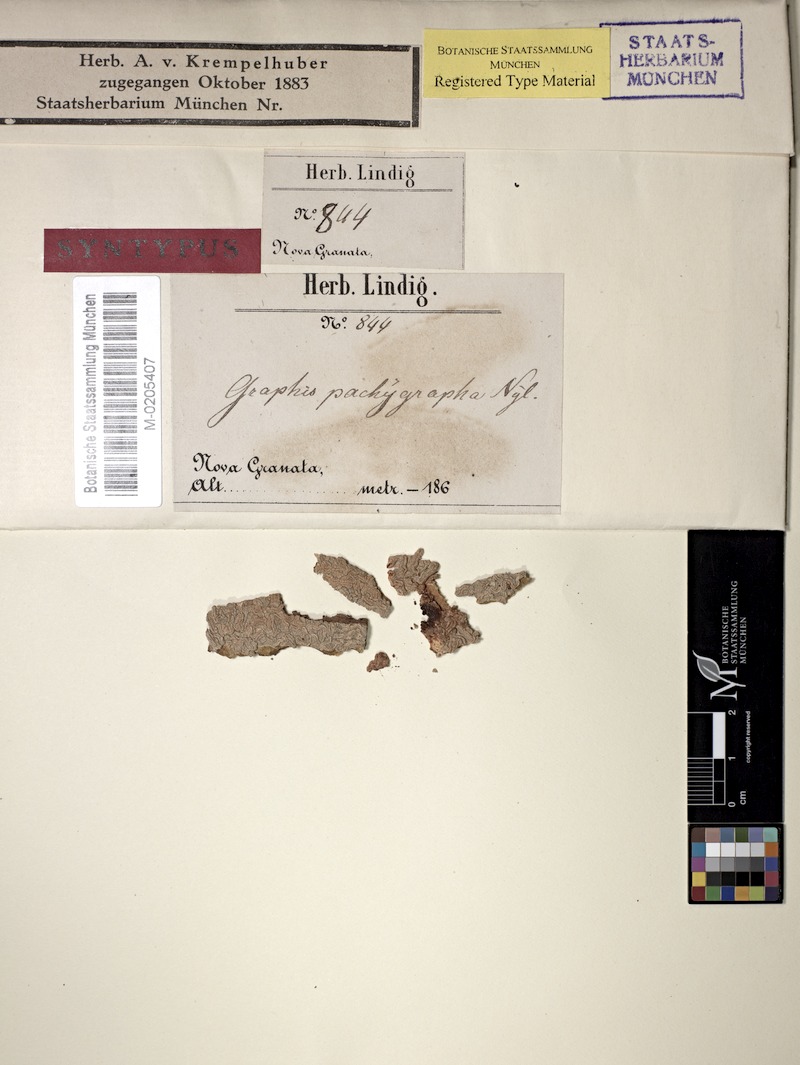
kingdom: Fungi
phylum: Ascomycota
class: Lecanoromycetes
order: Ostropales
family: Graphidaceae
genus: Allographa
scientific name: Allographa pachygrapha
